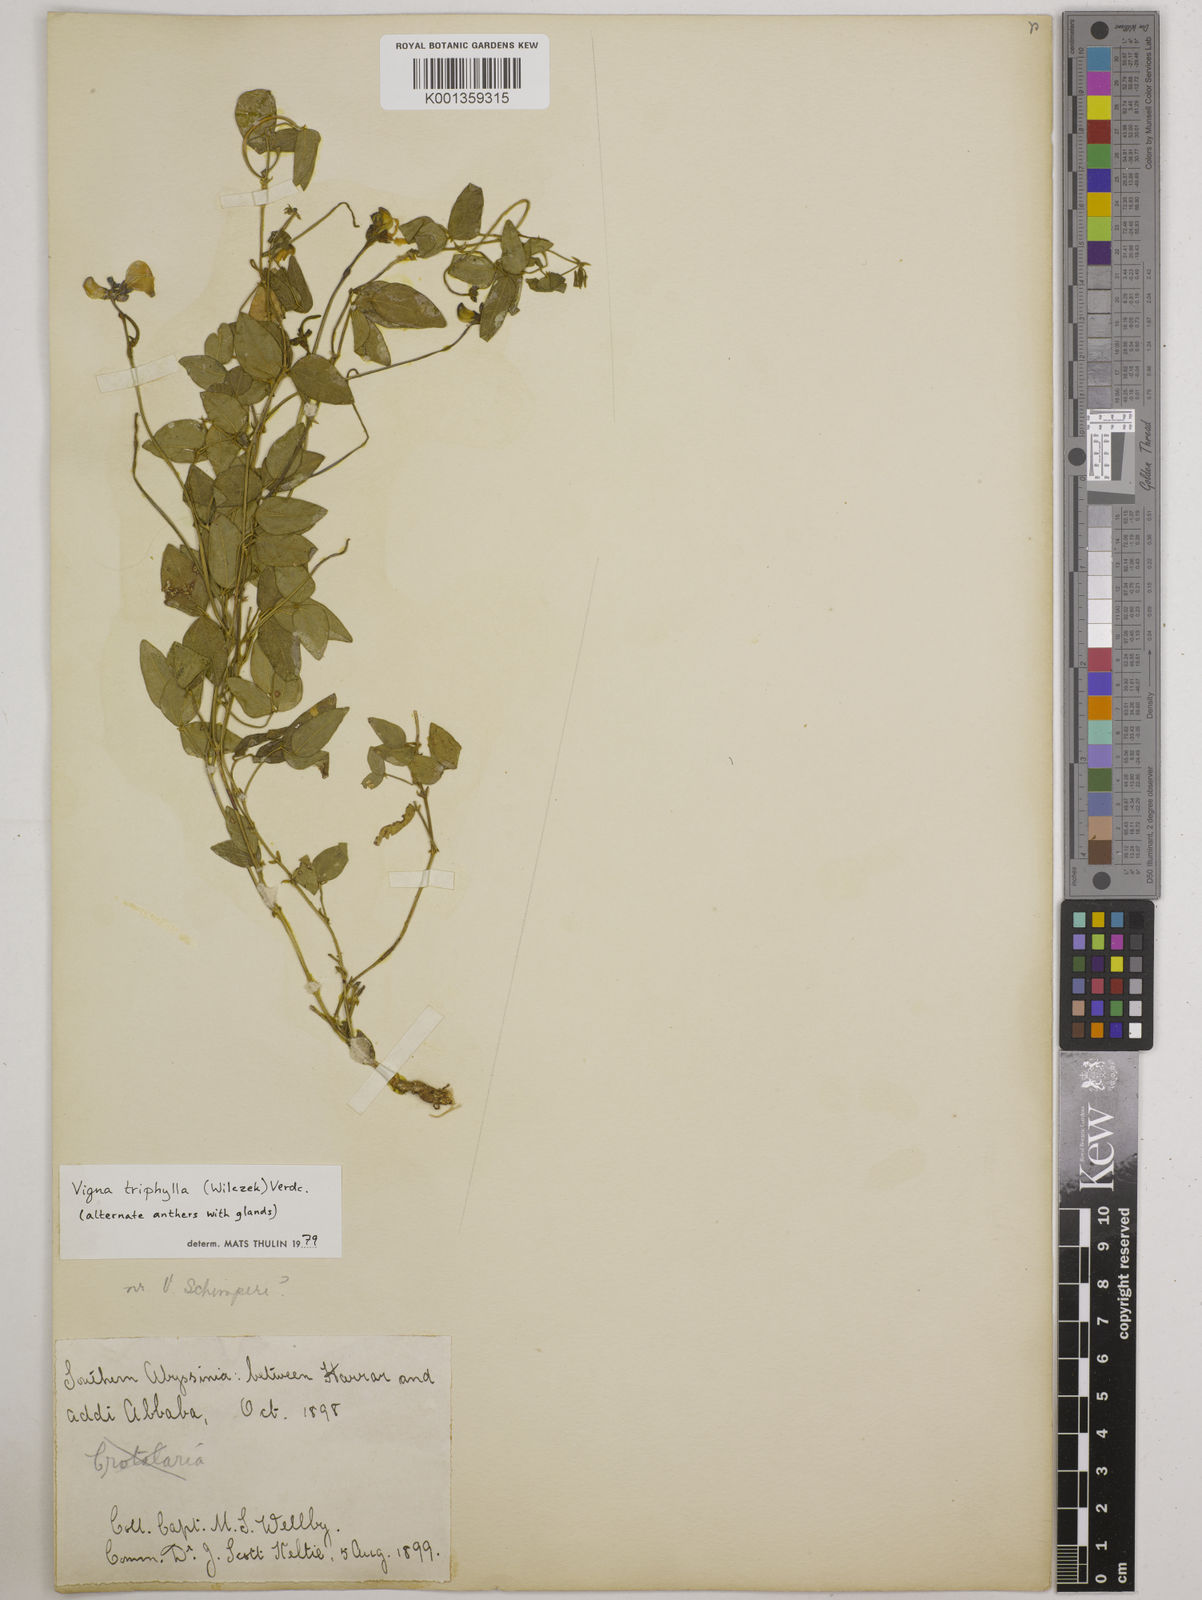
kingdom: Plantae
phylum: Tracheophyta
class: Magnoliopsida
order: Fabales
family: Fabaceae
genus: Vigna
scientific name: Vigna triphylla
